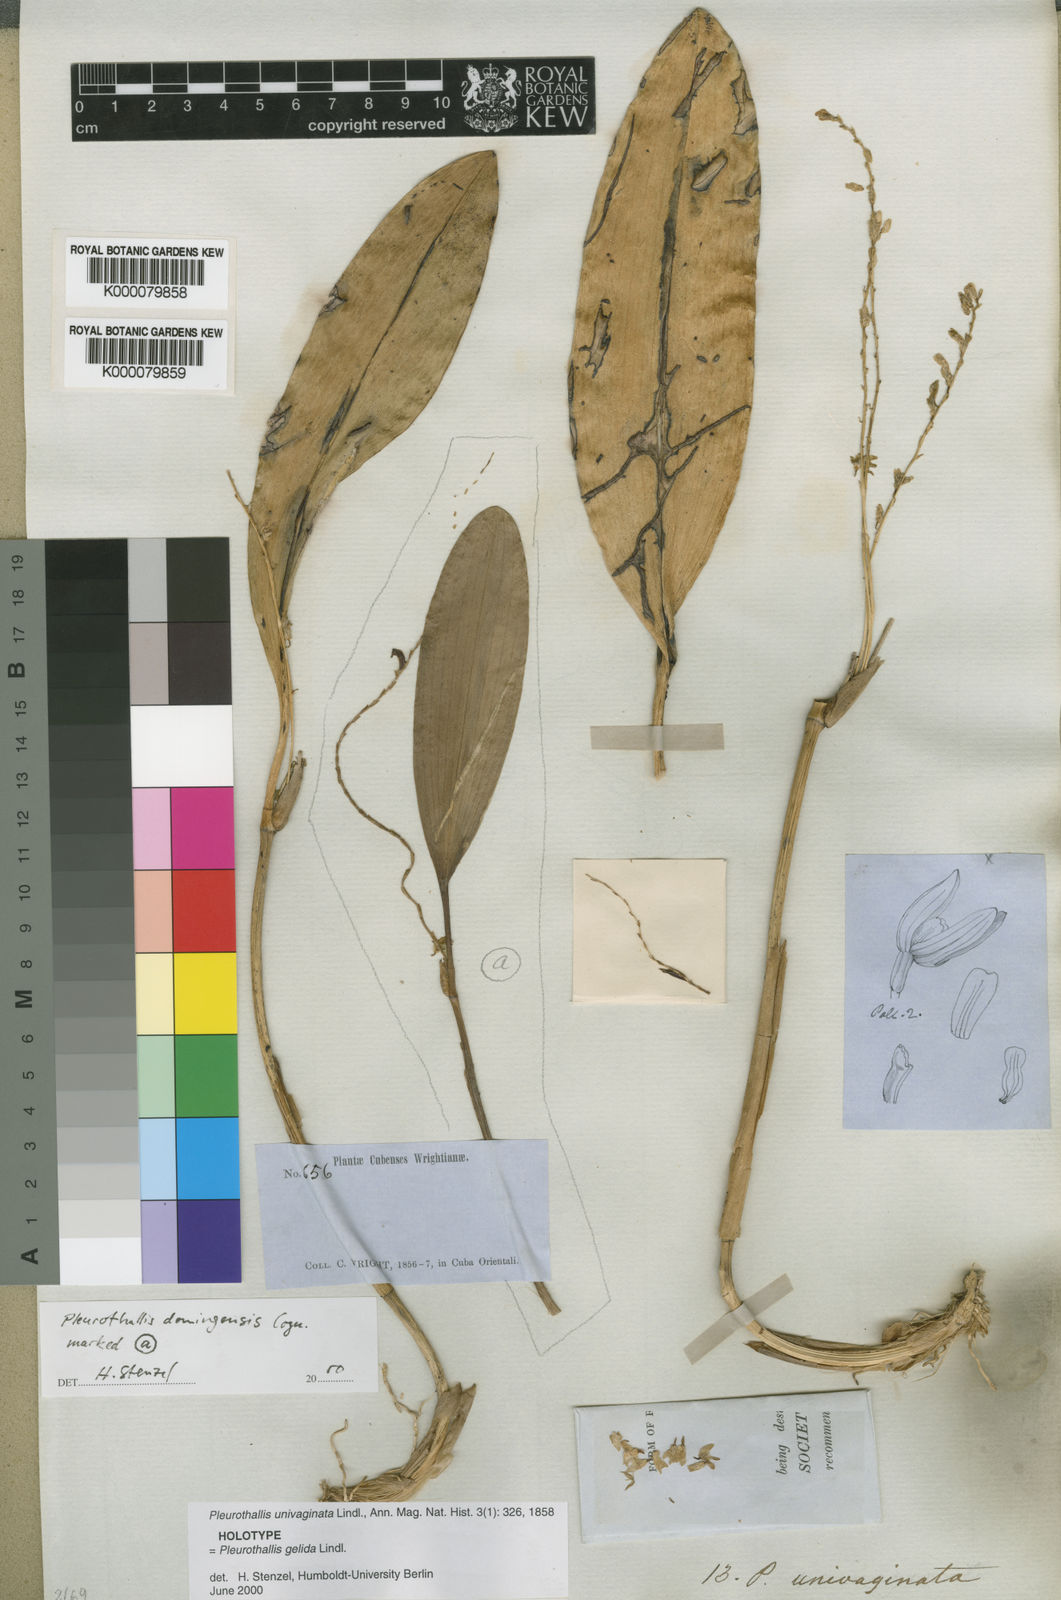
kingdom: Plantae
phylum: Tracheophyta
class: Liliopsida
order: Asparagales
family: Orchidaceae
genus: Stelis
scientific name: Stelis antillensis
